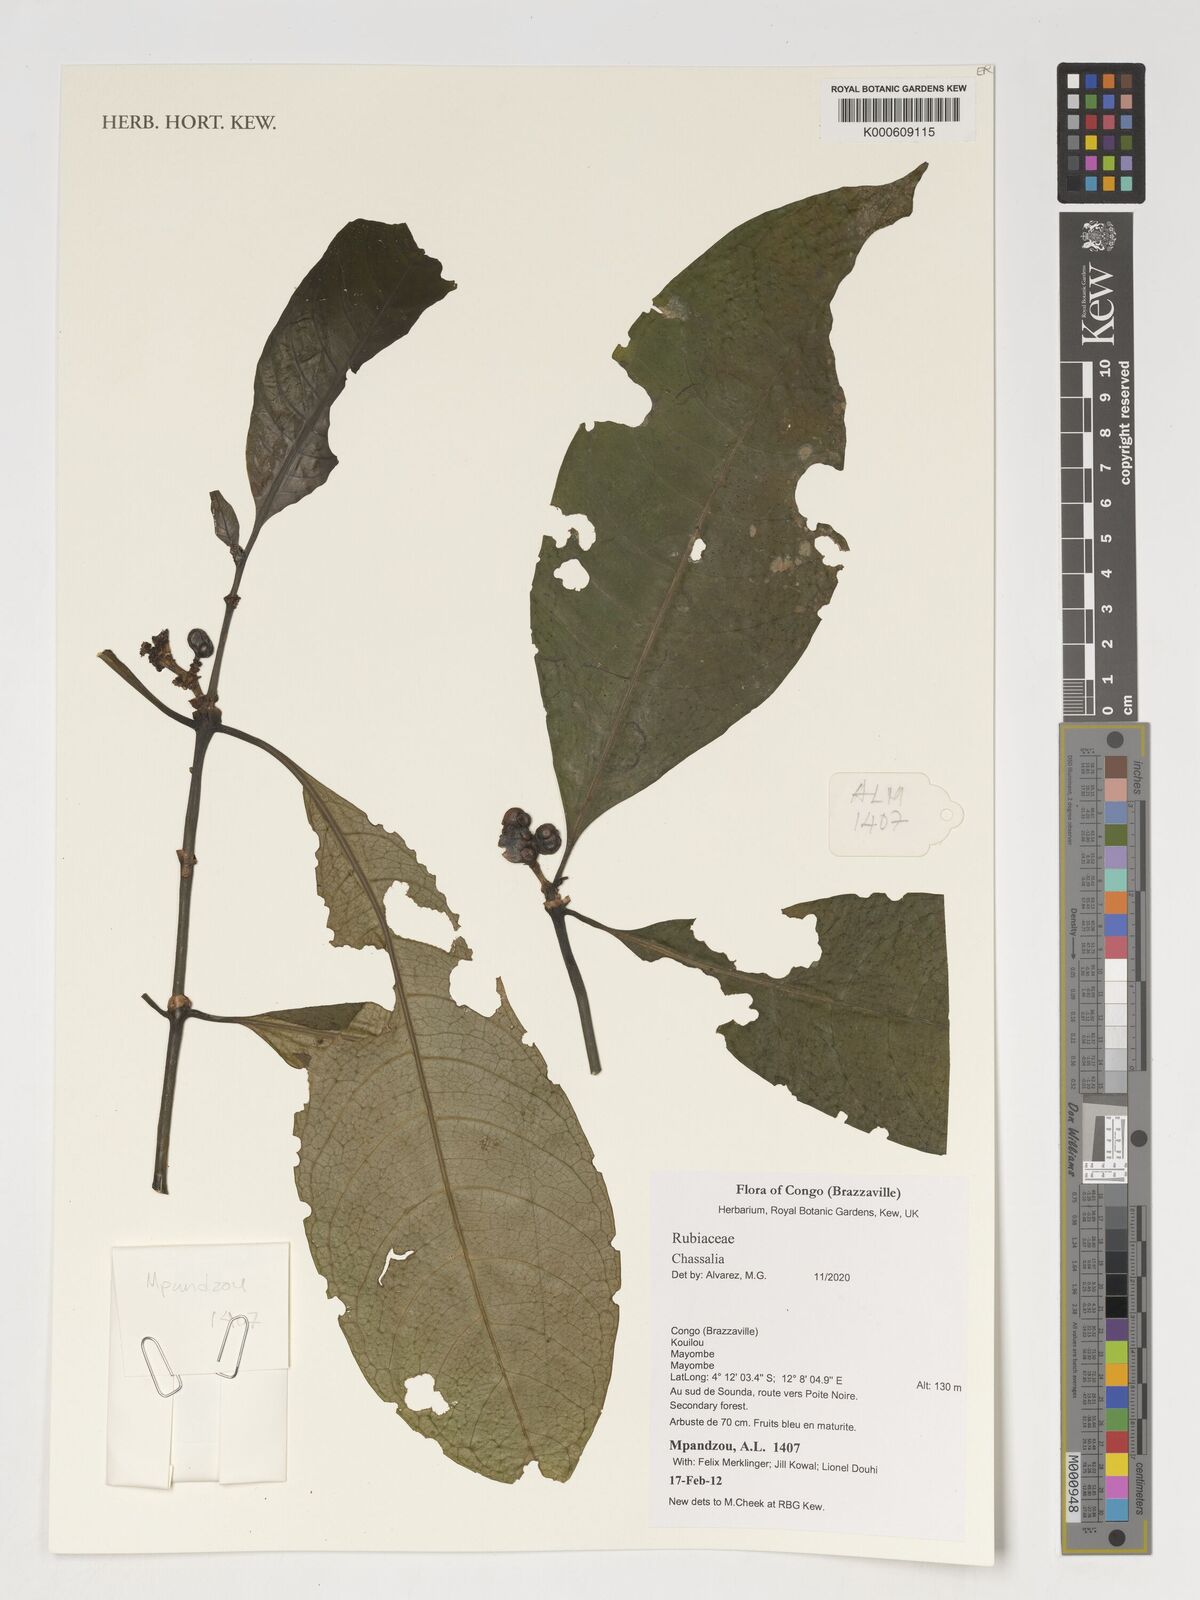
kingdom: Plantae
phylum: Tracheophyta
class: Magnoliopsida
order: Gentianales
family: Rubiaceae
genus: Chassalia
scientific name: Chassalia
